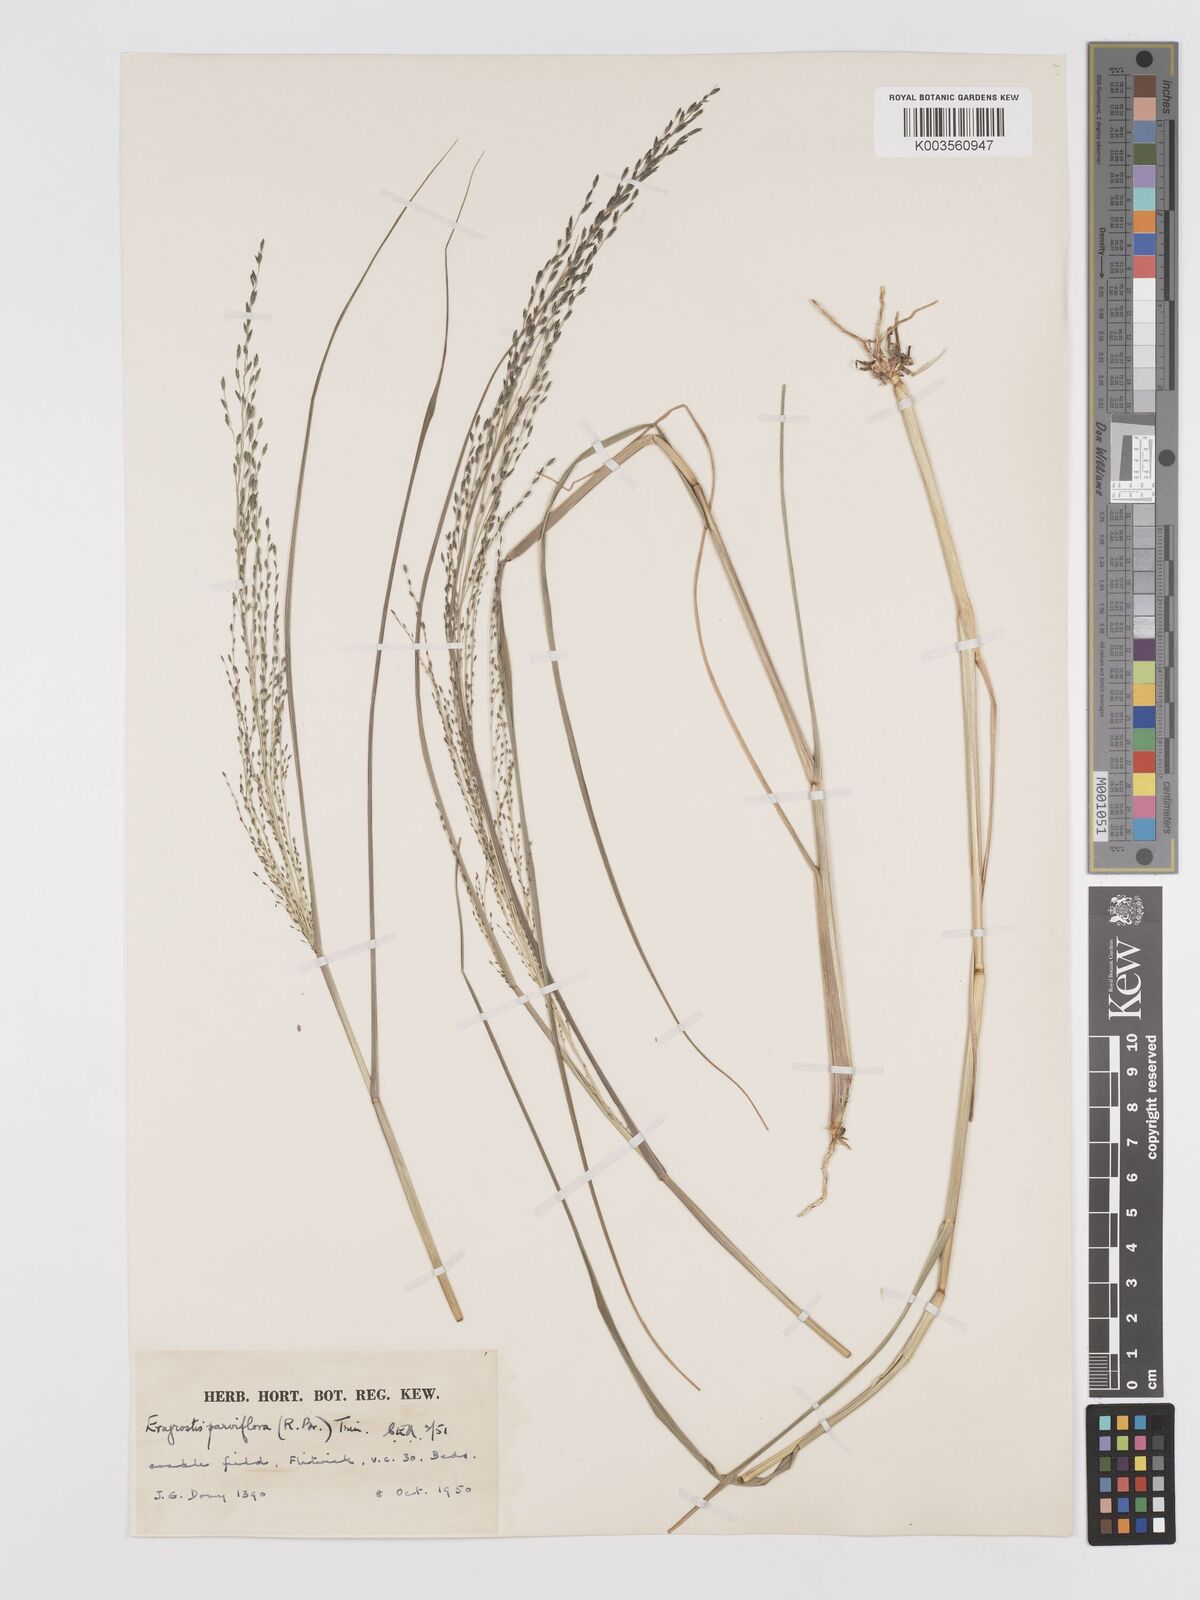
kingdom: Plantae
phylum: Tracheophyta
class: Liliopsida
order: Poales
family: Poaceae
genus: Eragrostis
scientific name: Eragrostis parviflora
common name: Weeping love-grass
